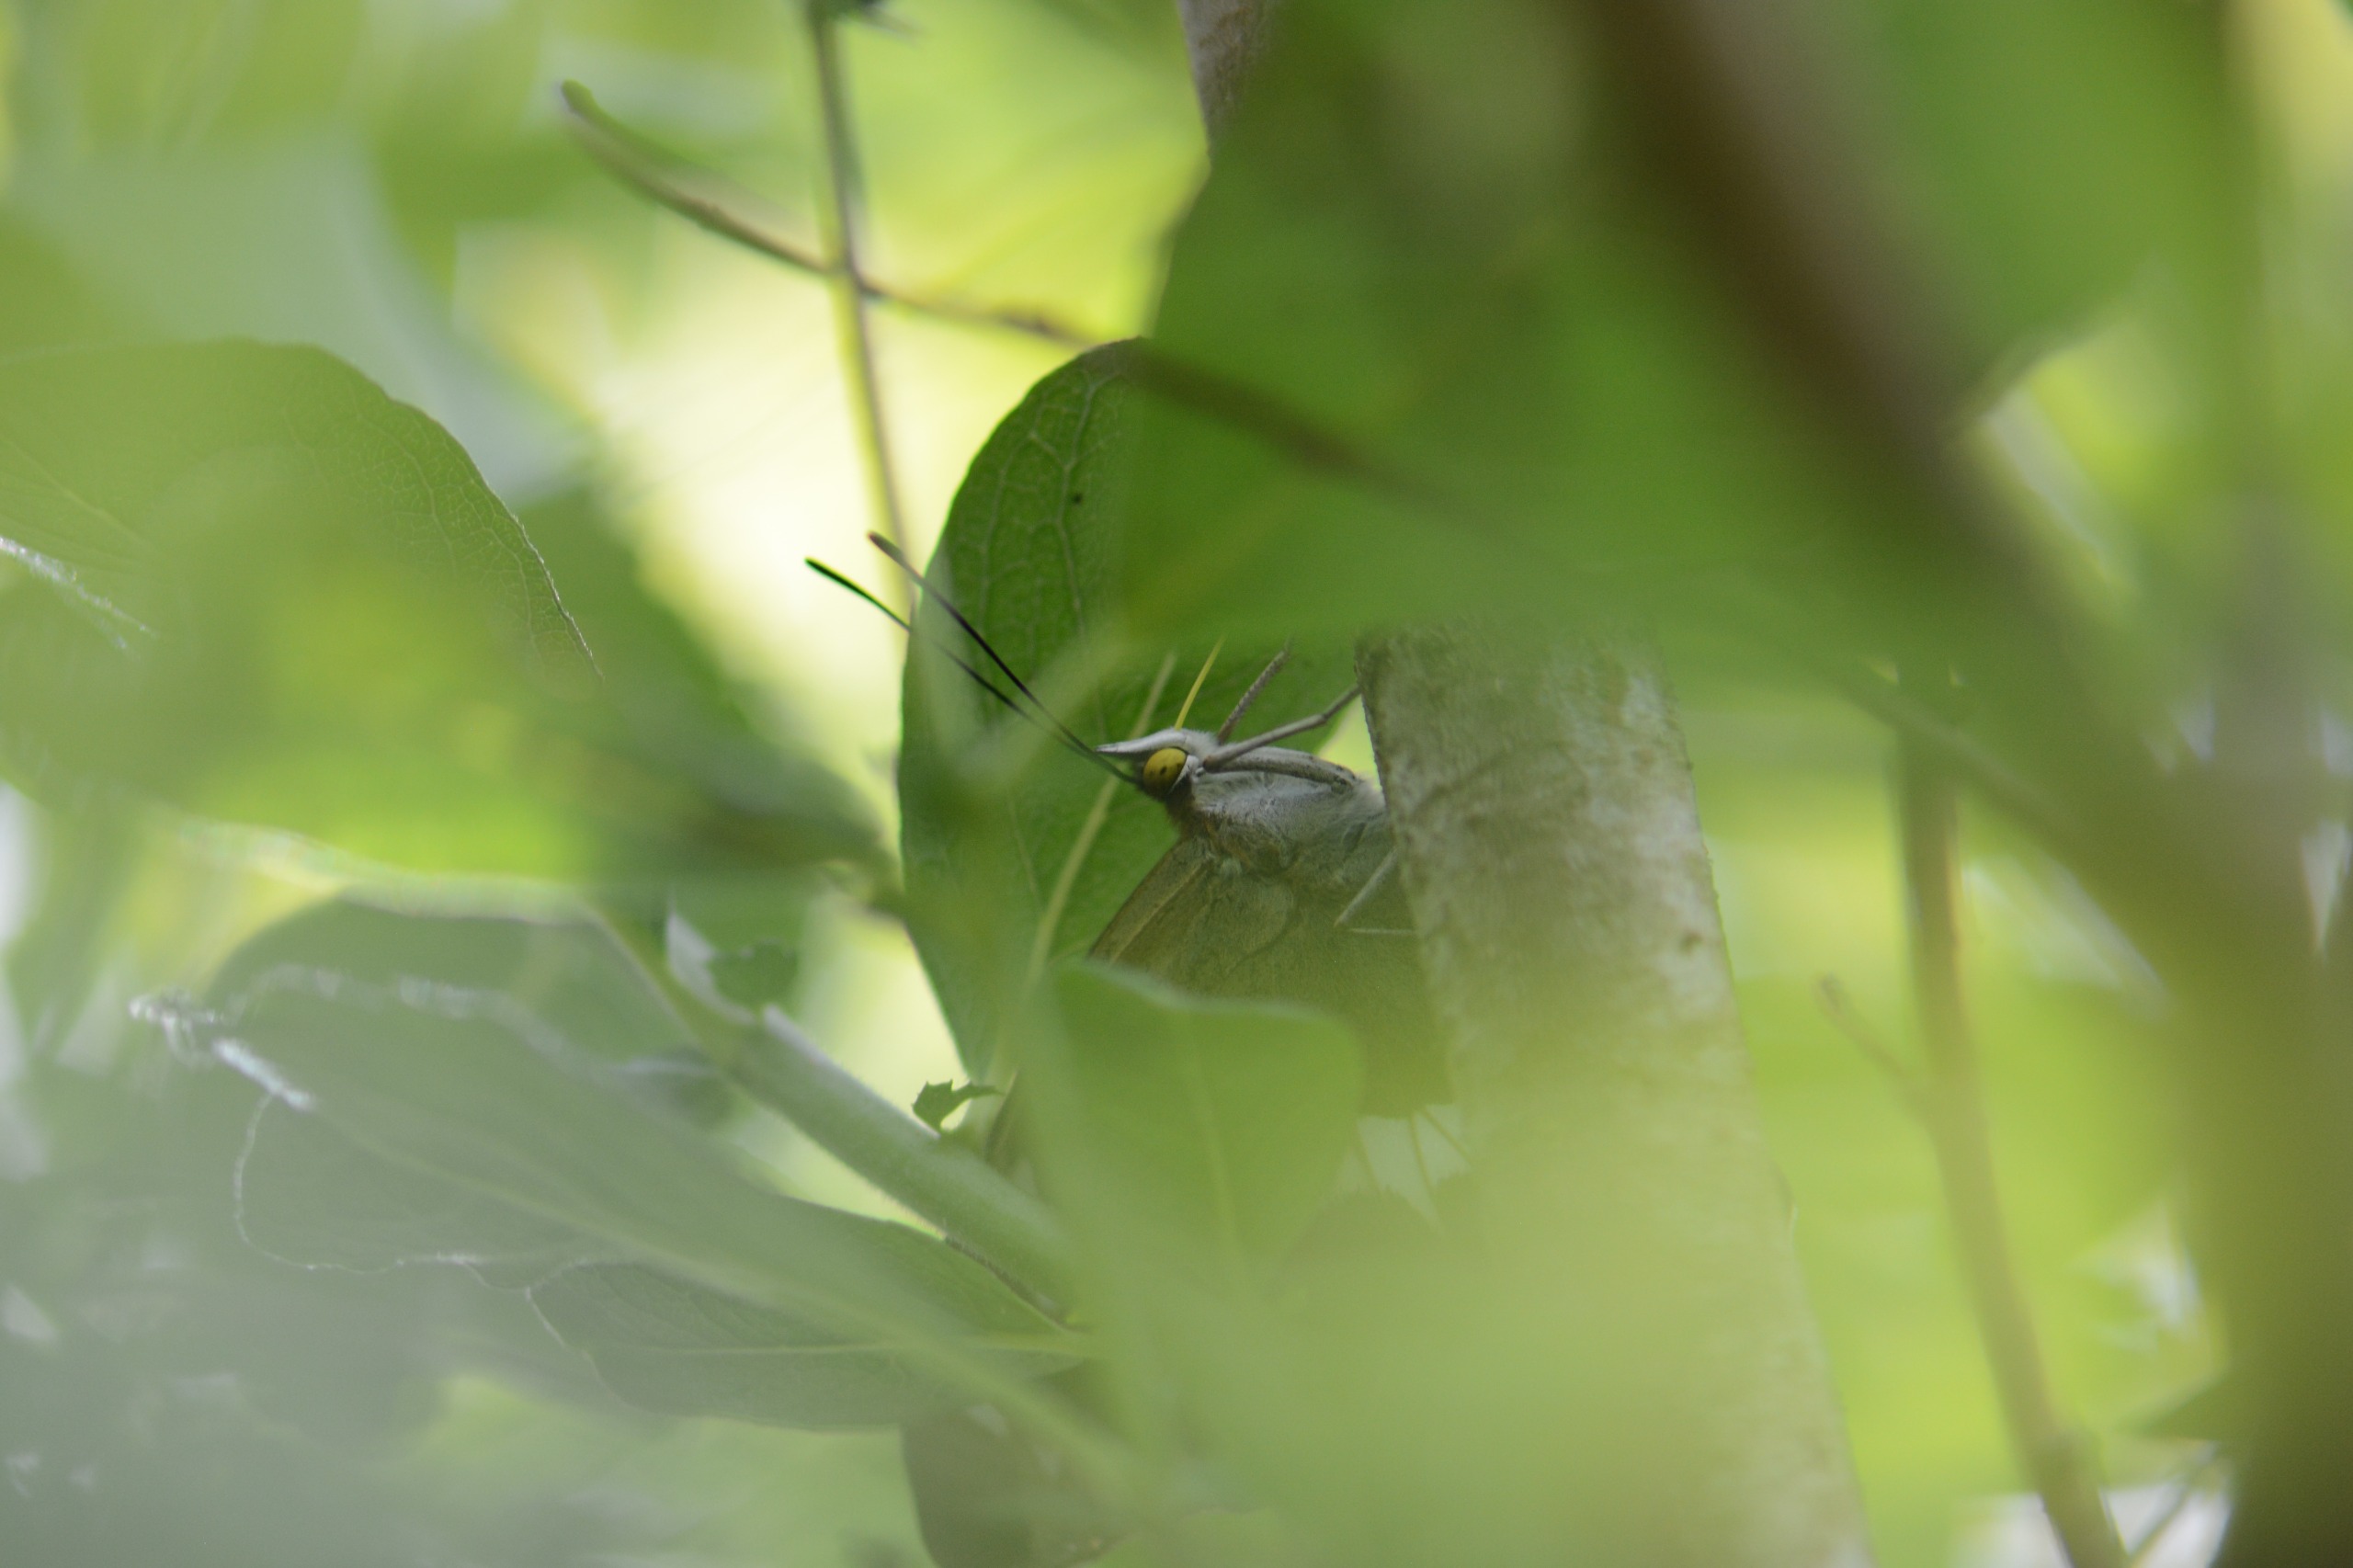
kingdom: Animalia
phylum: Arthropoda
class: Insecta
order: Lepidoptera
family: Nymphalidae
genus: Apatura
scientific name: Apatura iris
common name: Iris
